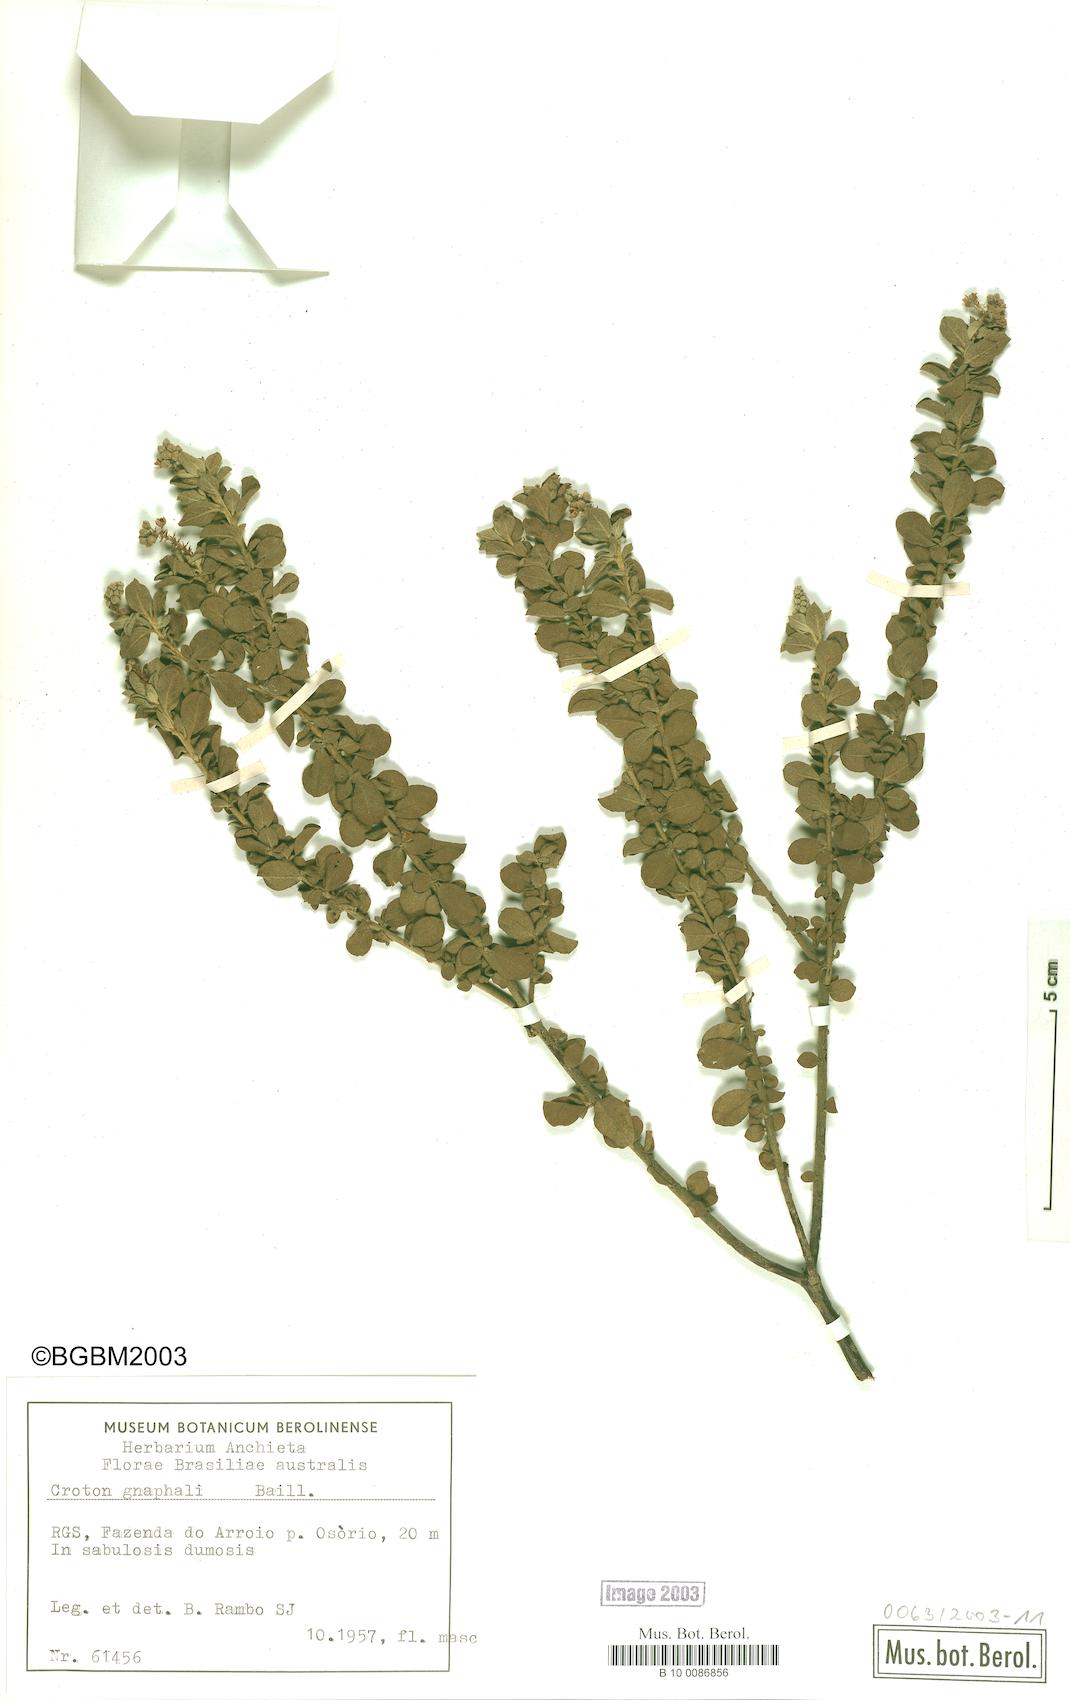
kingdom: Plantae
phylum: Tracheophyta
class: Magnoliopsida
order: Malpighiales
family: Euphorbiaceae
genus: Croton
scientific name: Croton gnaphalii
